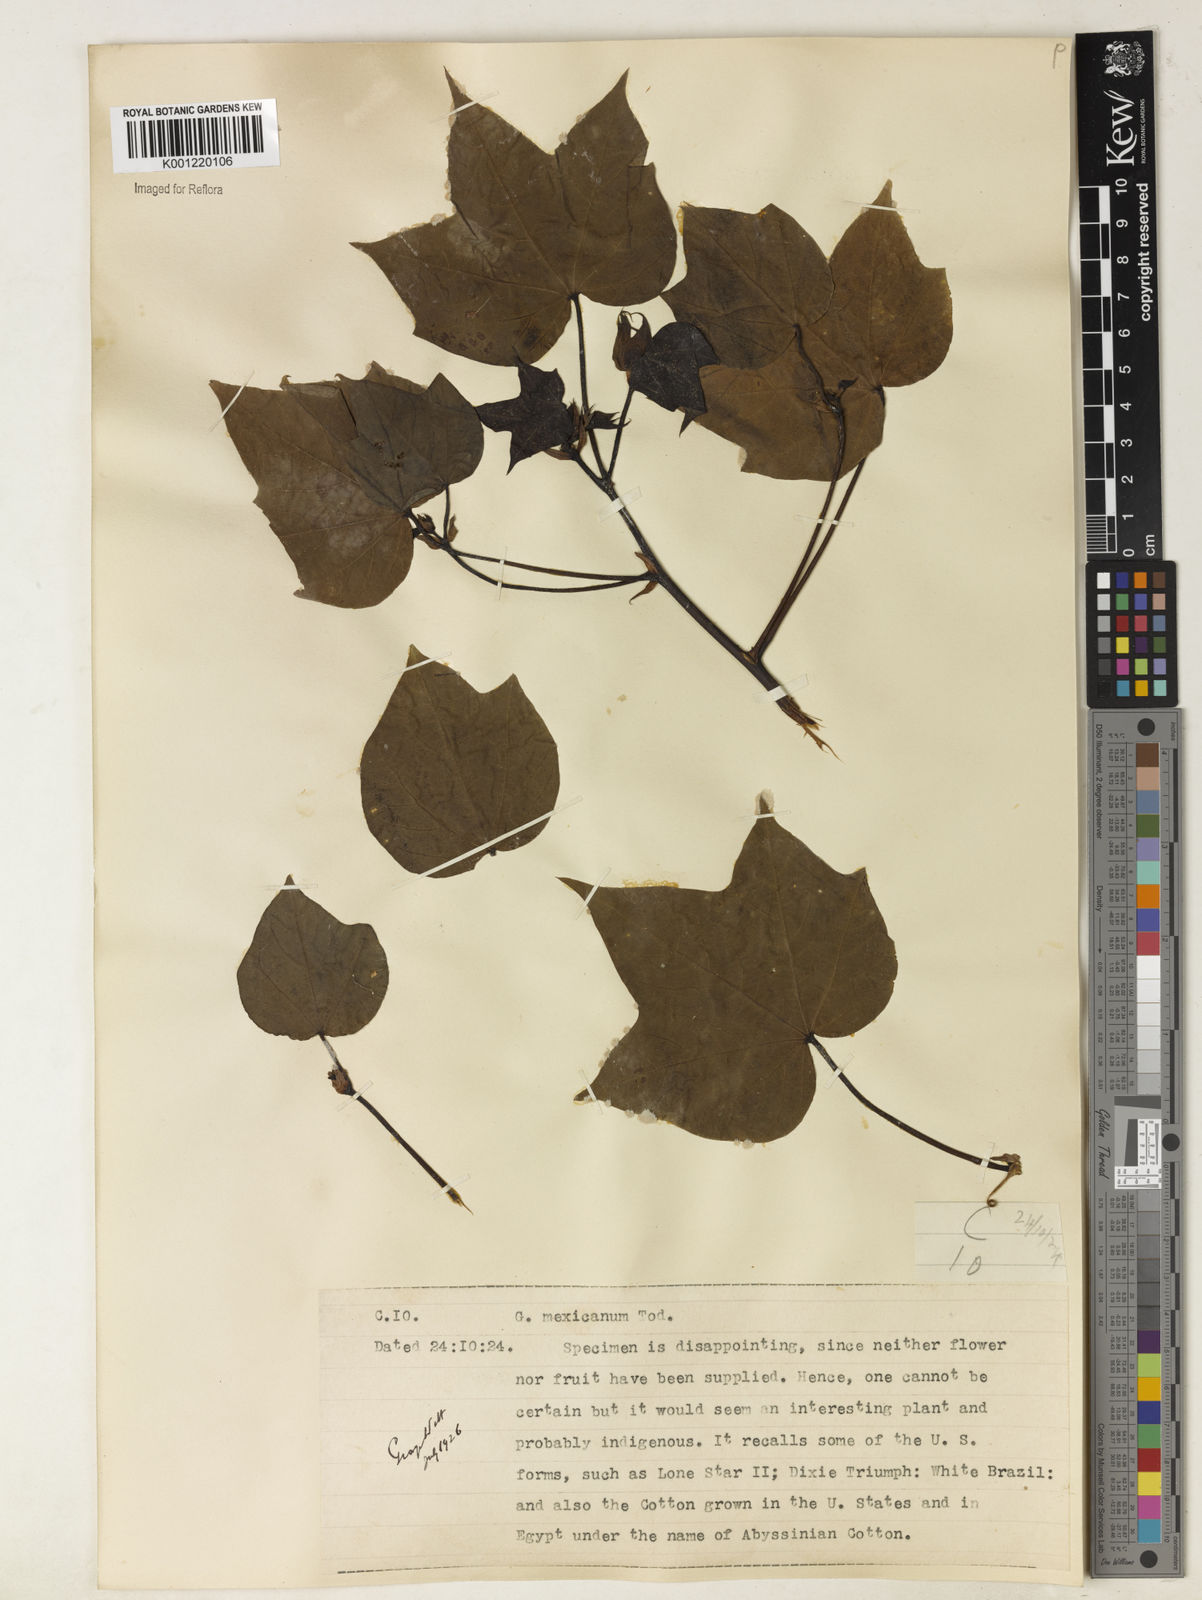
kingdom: Plantae
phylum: Tracheophyta
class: Magnoliopsida
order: Malvales
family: Malvaceae
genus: Gossypium
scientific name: Gossypium
